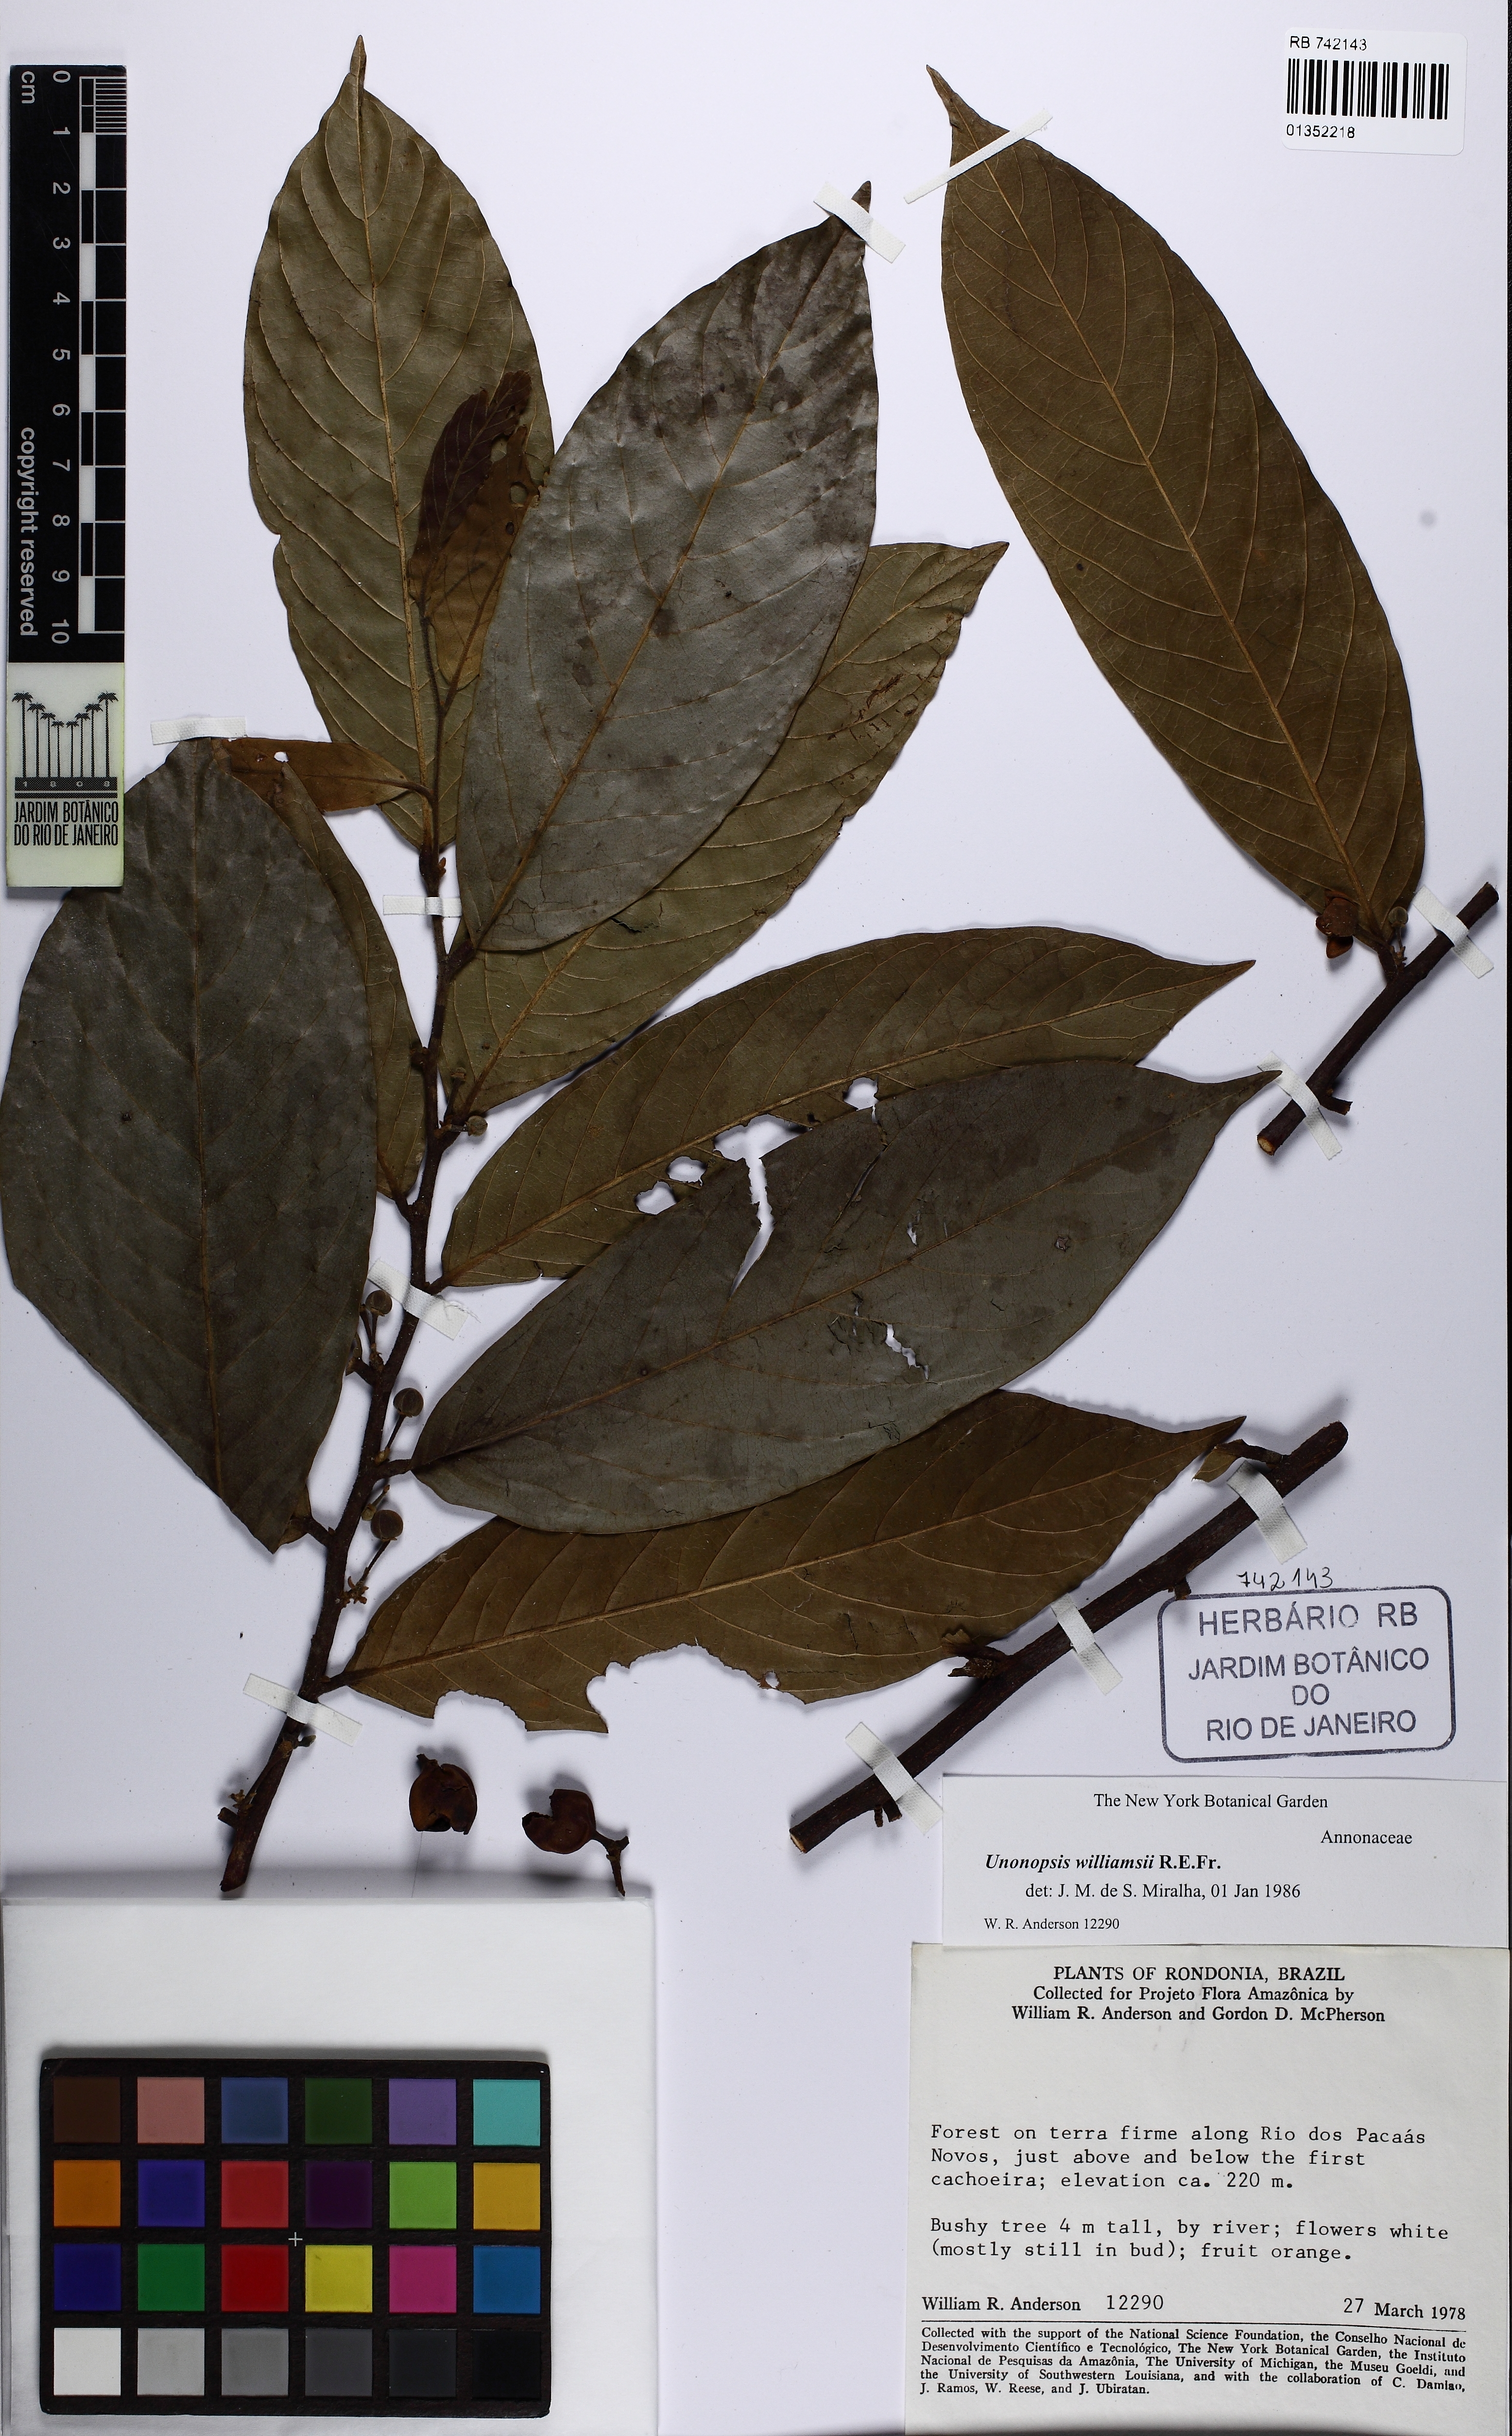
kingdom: Plantae
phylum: Tracheophyta
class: Magnoliopsida
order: Magnoliales
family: Annonaceae
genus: Unonopsis
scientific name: Unonopsis guatterioides
